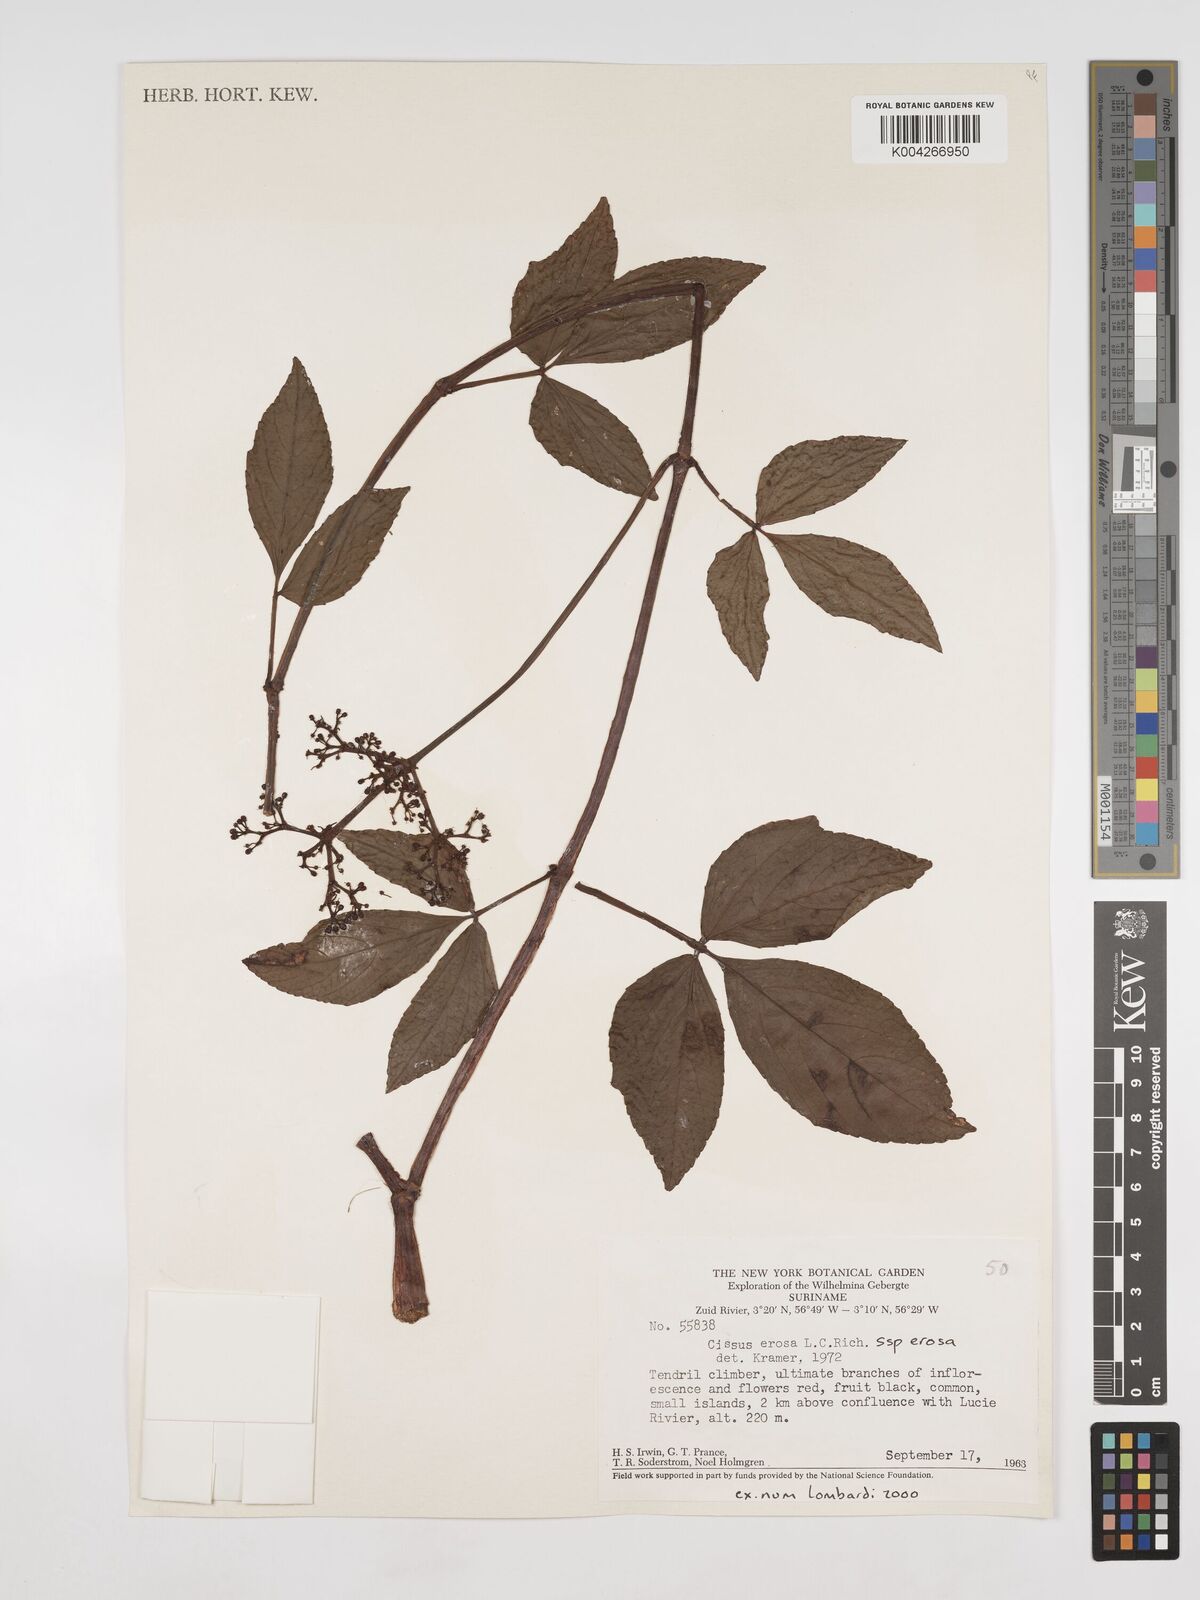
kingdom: Plantae
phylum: Tracheophyta
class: Magnoliopsida
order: Vitales
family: Vitaceae
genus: Cissus
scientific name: Cissus erosa
